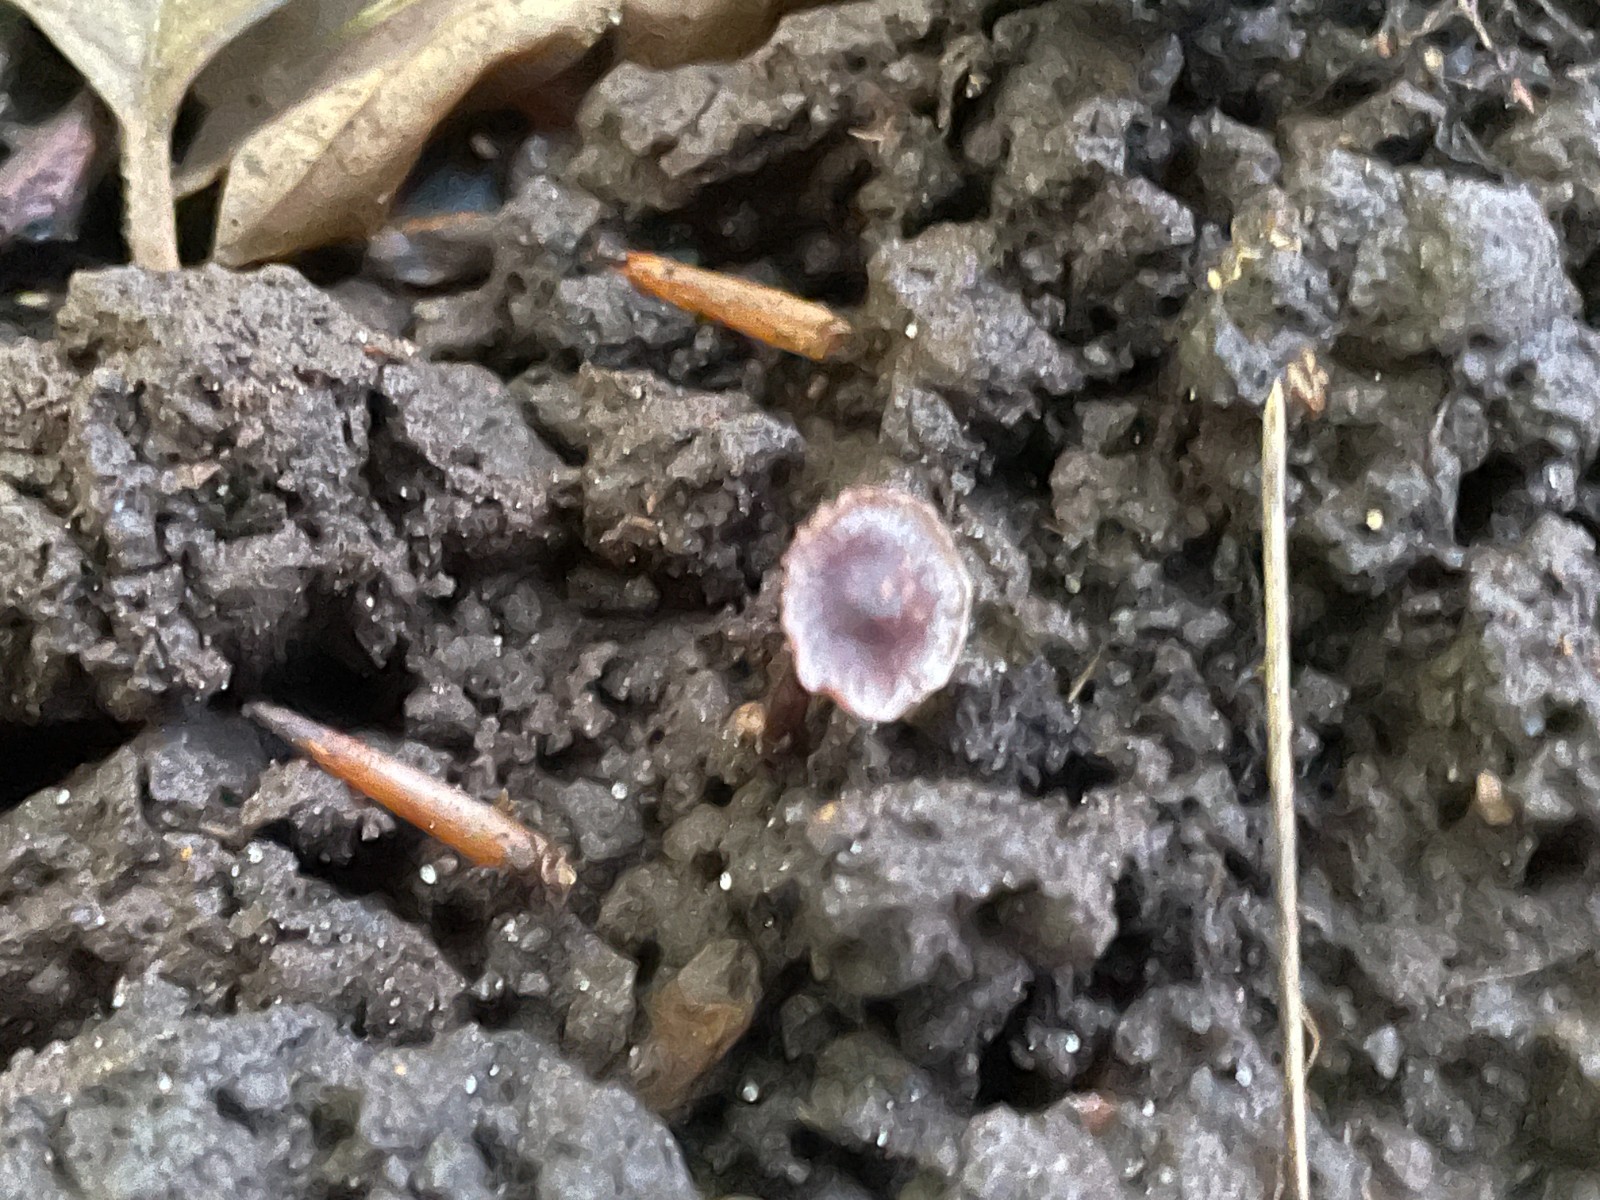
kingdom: Fungi
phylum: Basidiomycota
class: Agaricomycetes
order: Agaricales
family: Cortinariaceae
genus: Cortinarius
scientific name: Cortinarius americanus
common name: natsort slørhat
